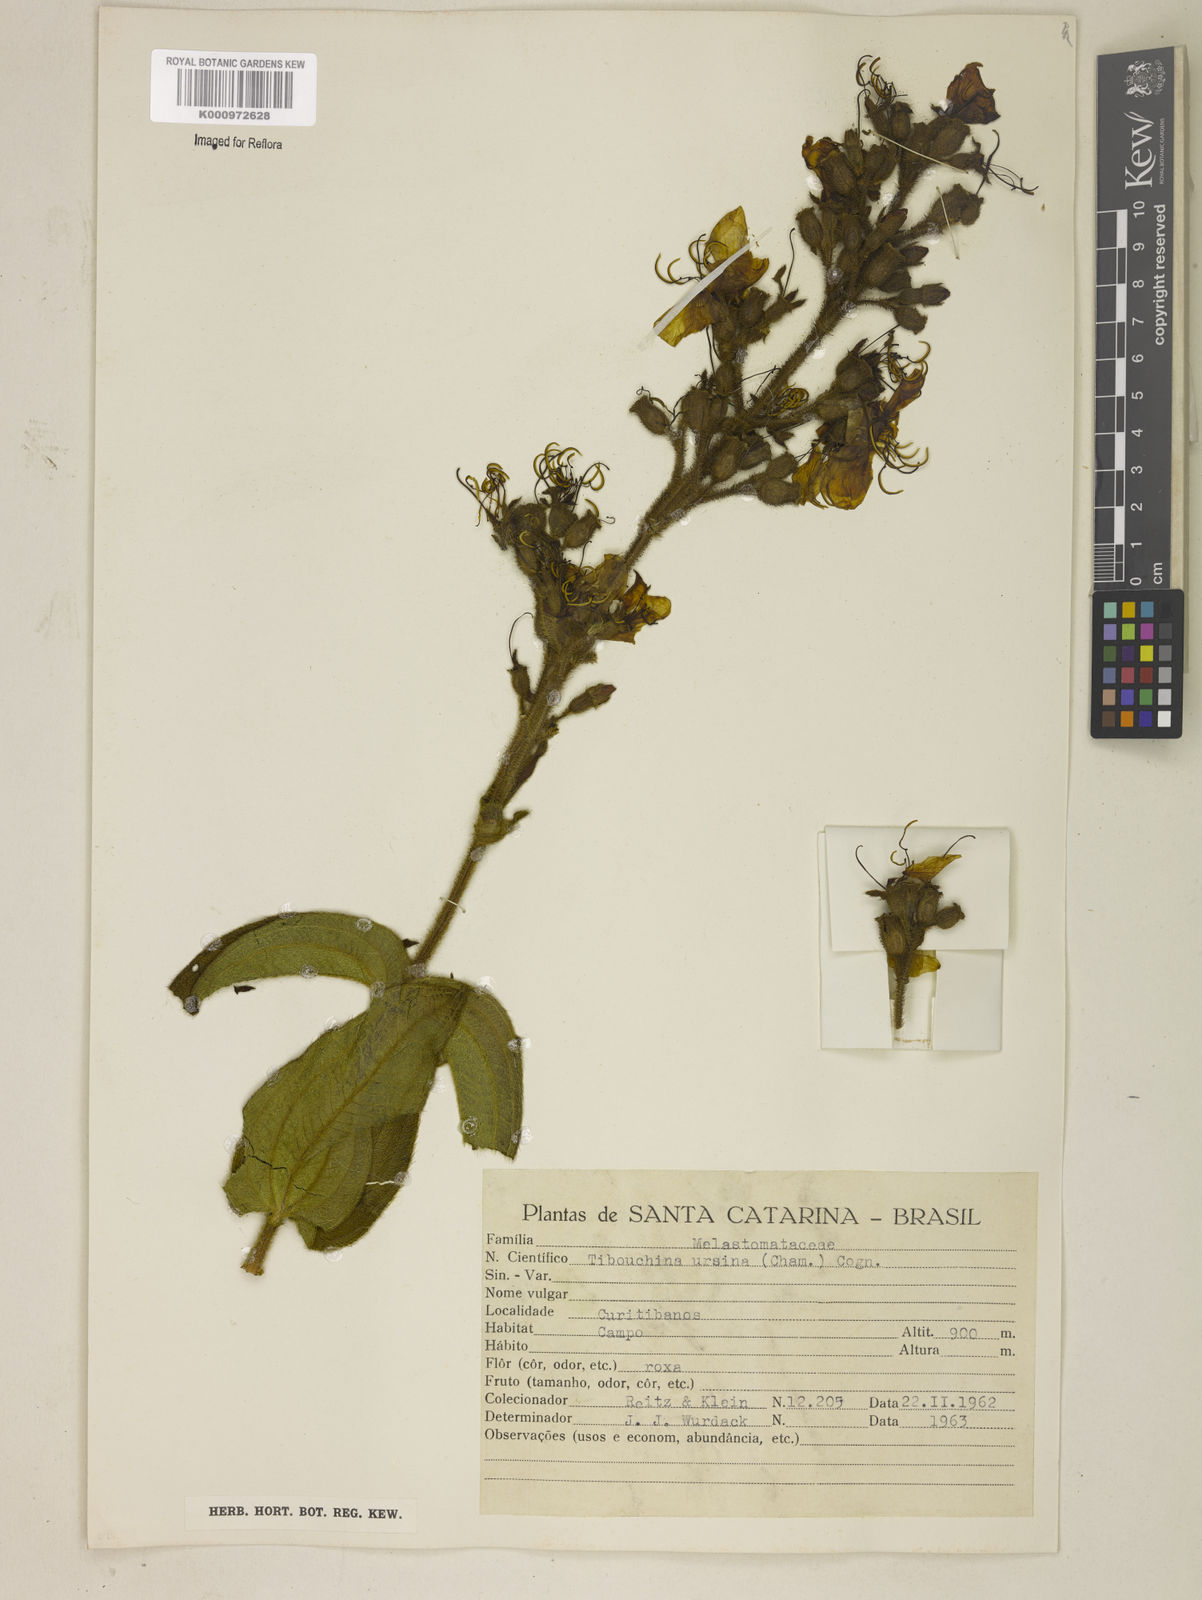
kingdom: Plantae
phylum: Tracheophyta
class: Magnoliopsida
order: Myrtales
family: Melastomataceae
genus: Pleroma
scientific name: Pleroma ursinum
